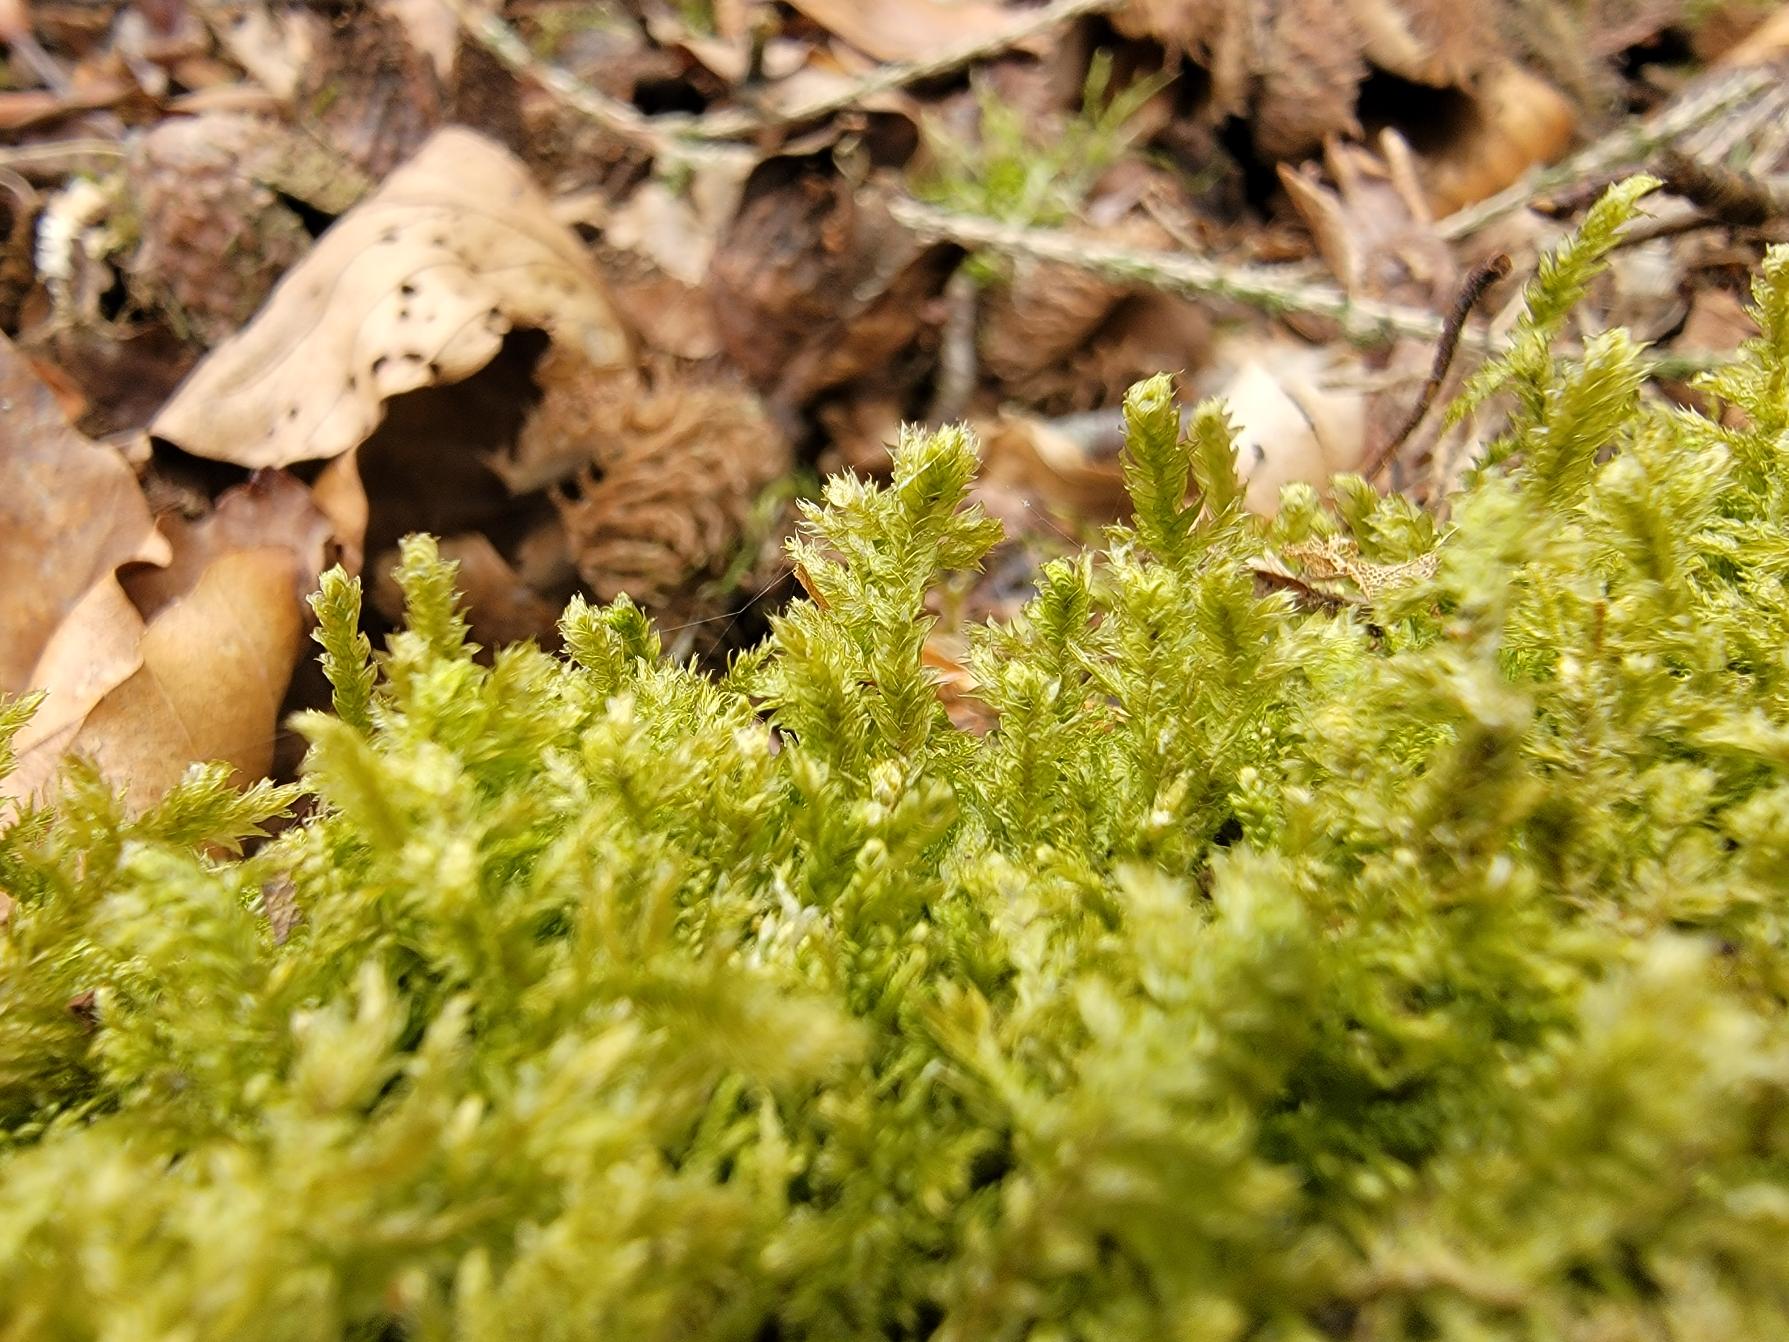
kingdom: Plantae
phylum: Bryophyta
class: Bryopsida
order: Hypnales
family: Neckeraceae
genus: Neckera
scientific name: Neckera pumila
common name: Lav fladmos
